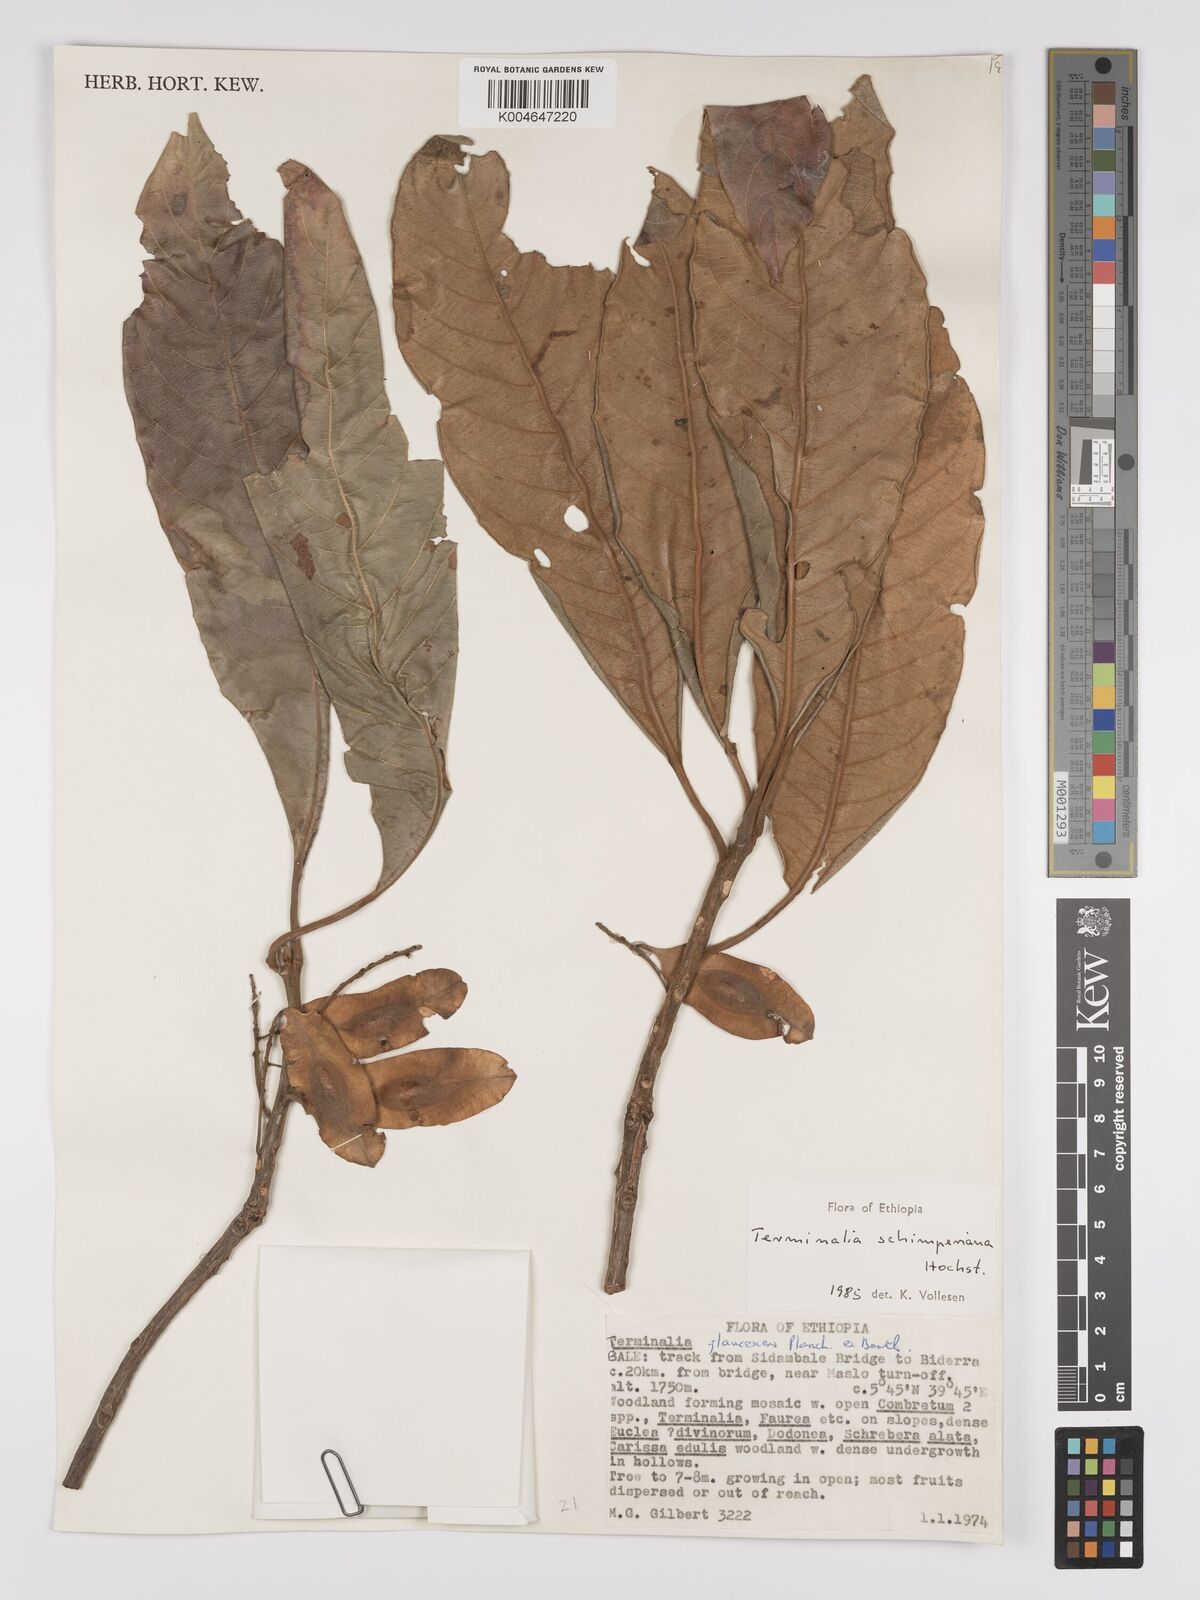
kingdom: Plantae
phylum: Tracheophyta
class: Magnoliopsida
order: Myrtales
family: Combretaceae
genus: Terminalia
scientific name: Terminalia schimperiana
